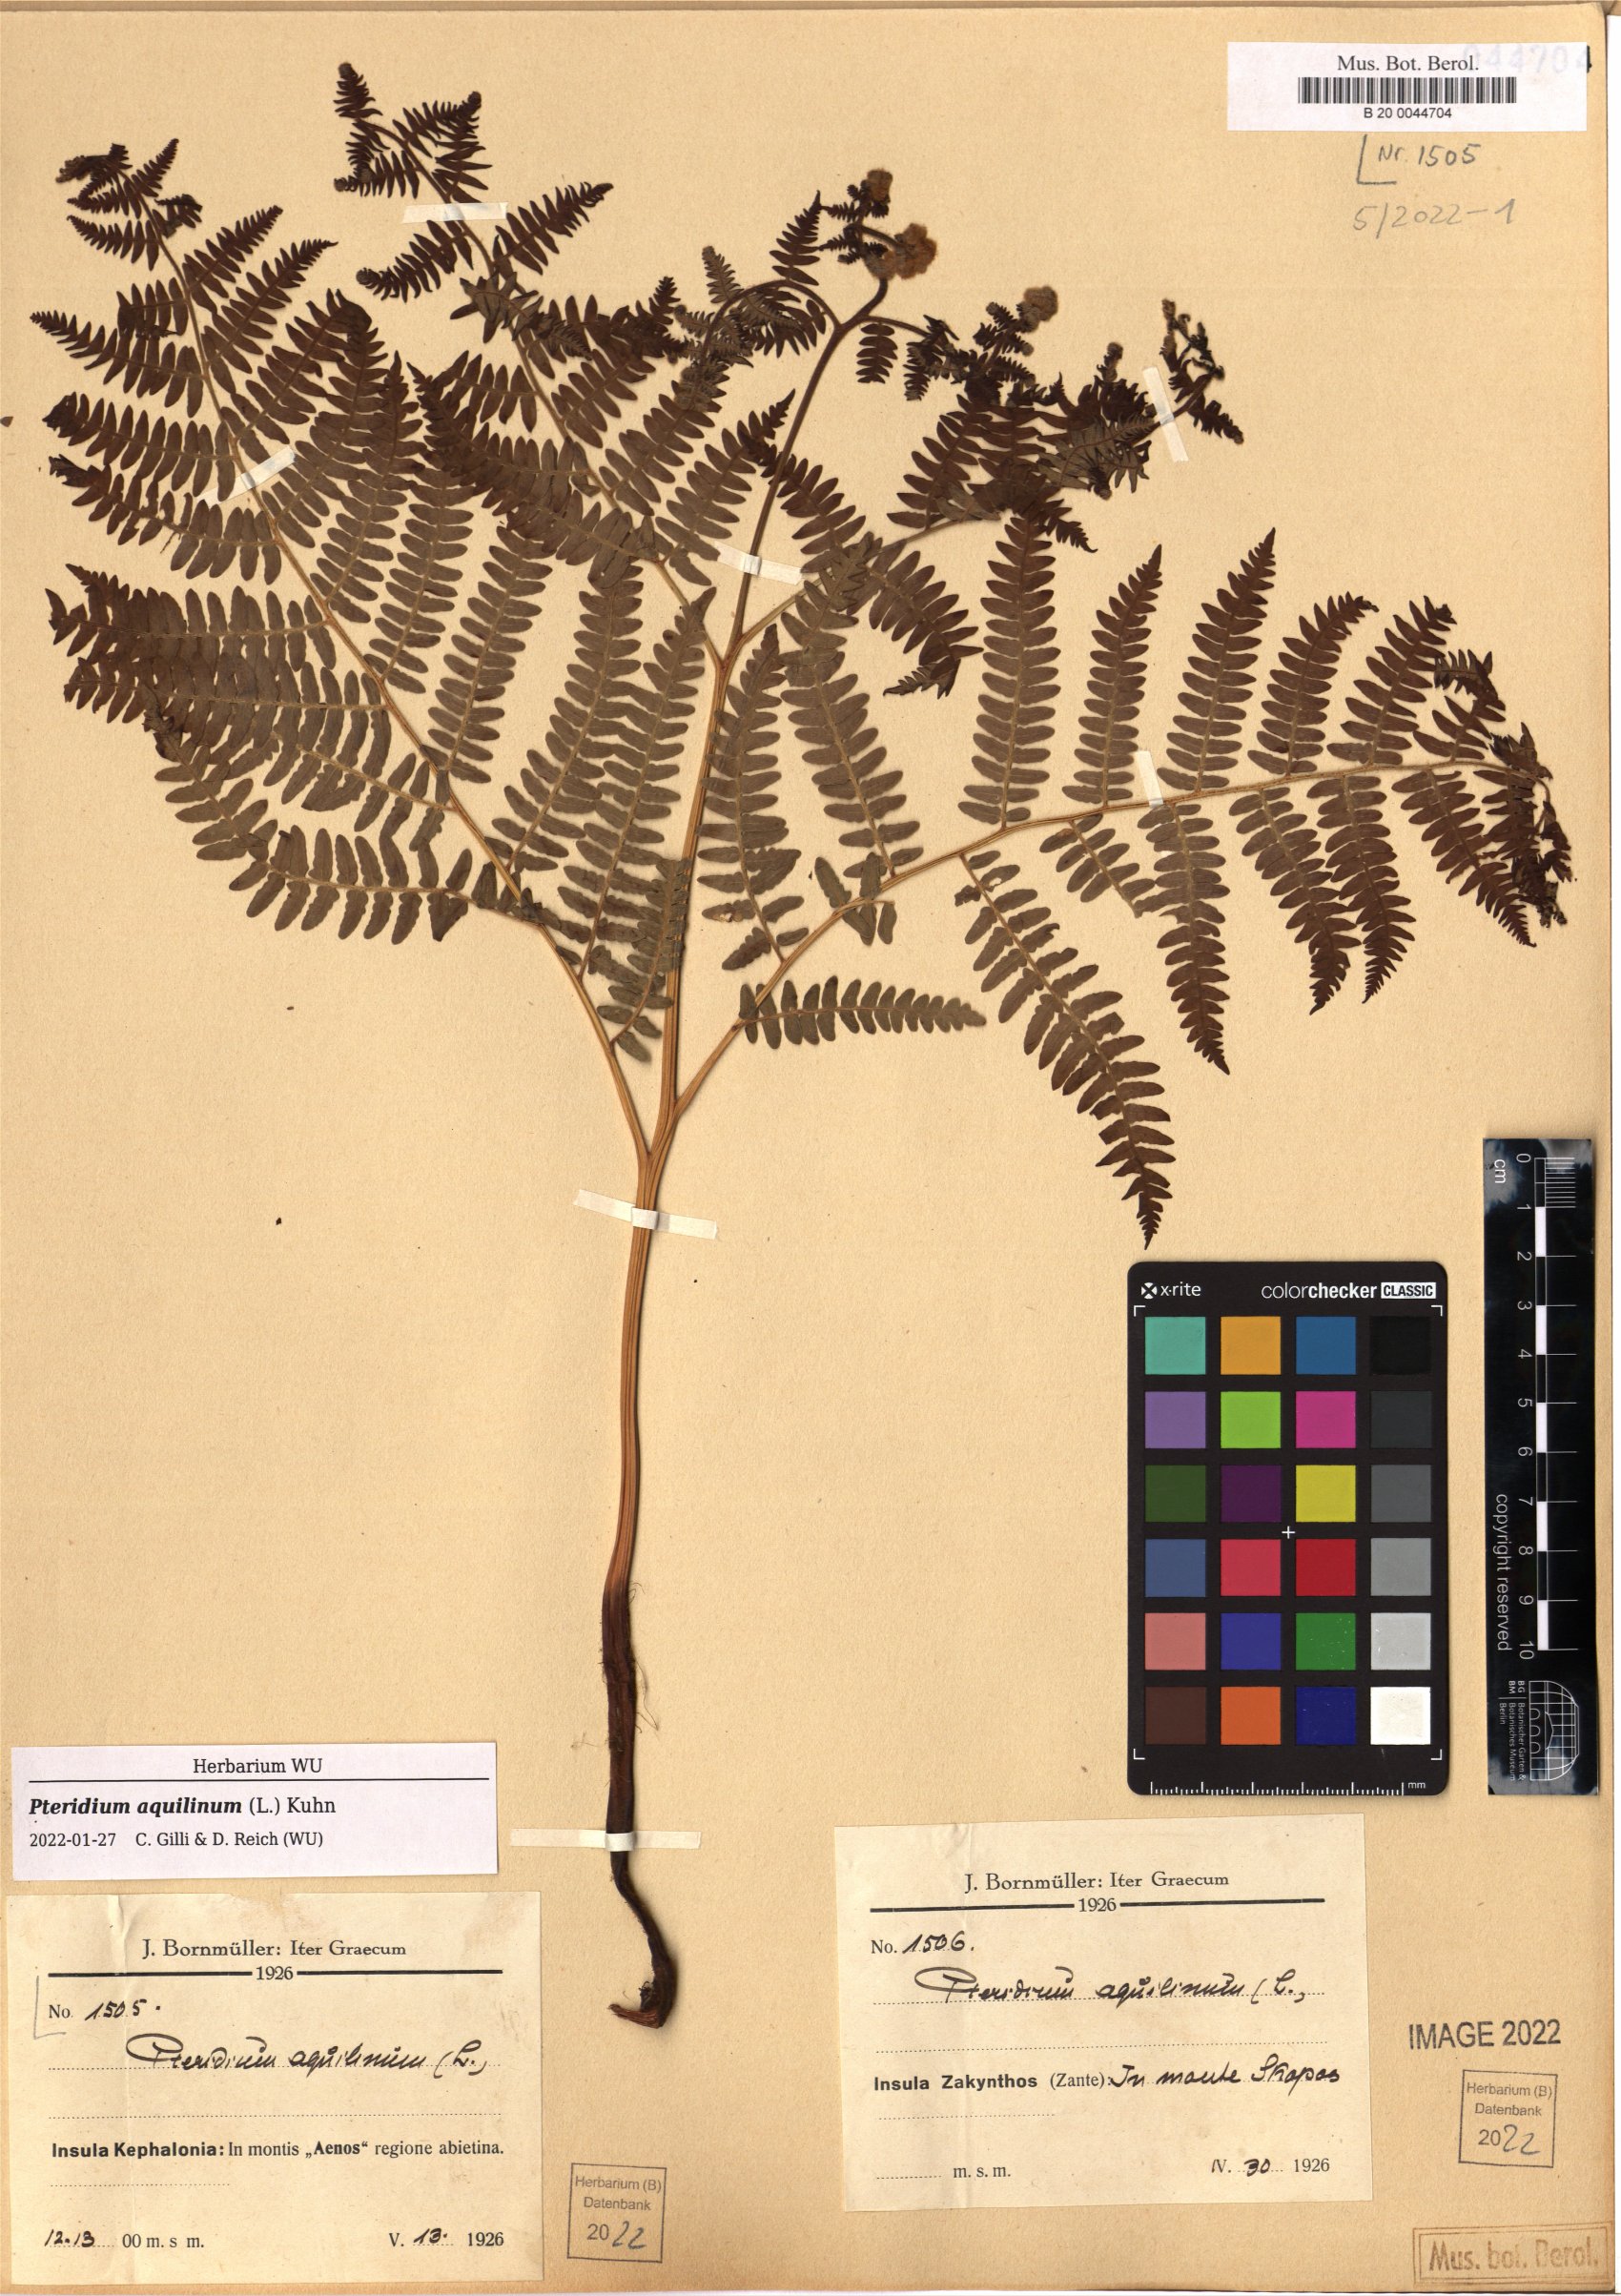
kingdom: Plantae
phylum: Tracheophyta
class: Polypodiopsida
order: Polypodiales
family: Dennstaedtiaceae
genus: Pteridium
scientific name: Pteridium aquilinum
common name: Bracken
